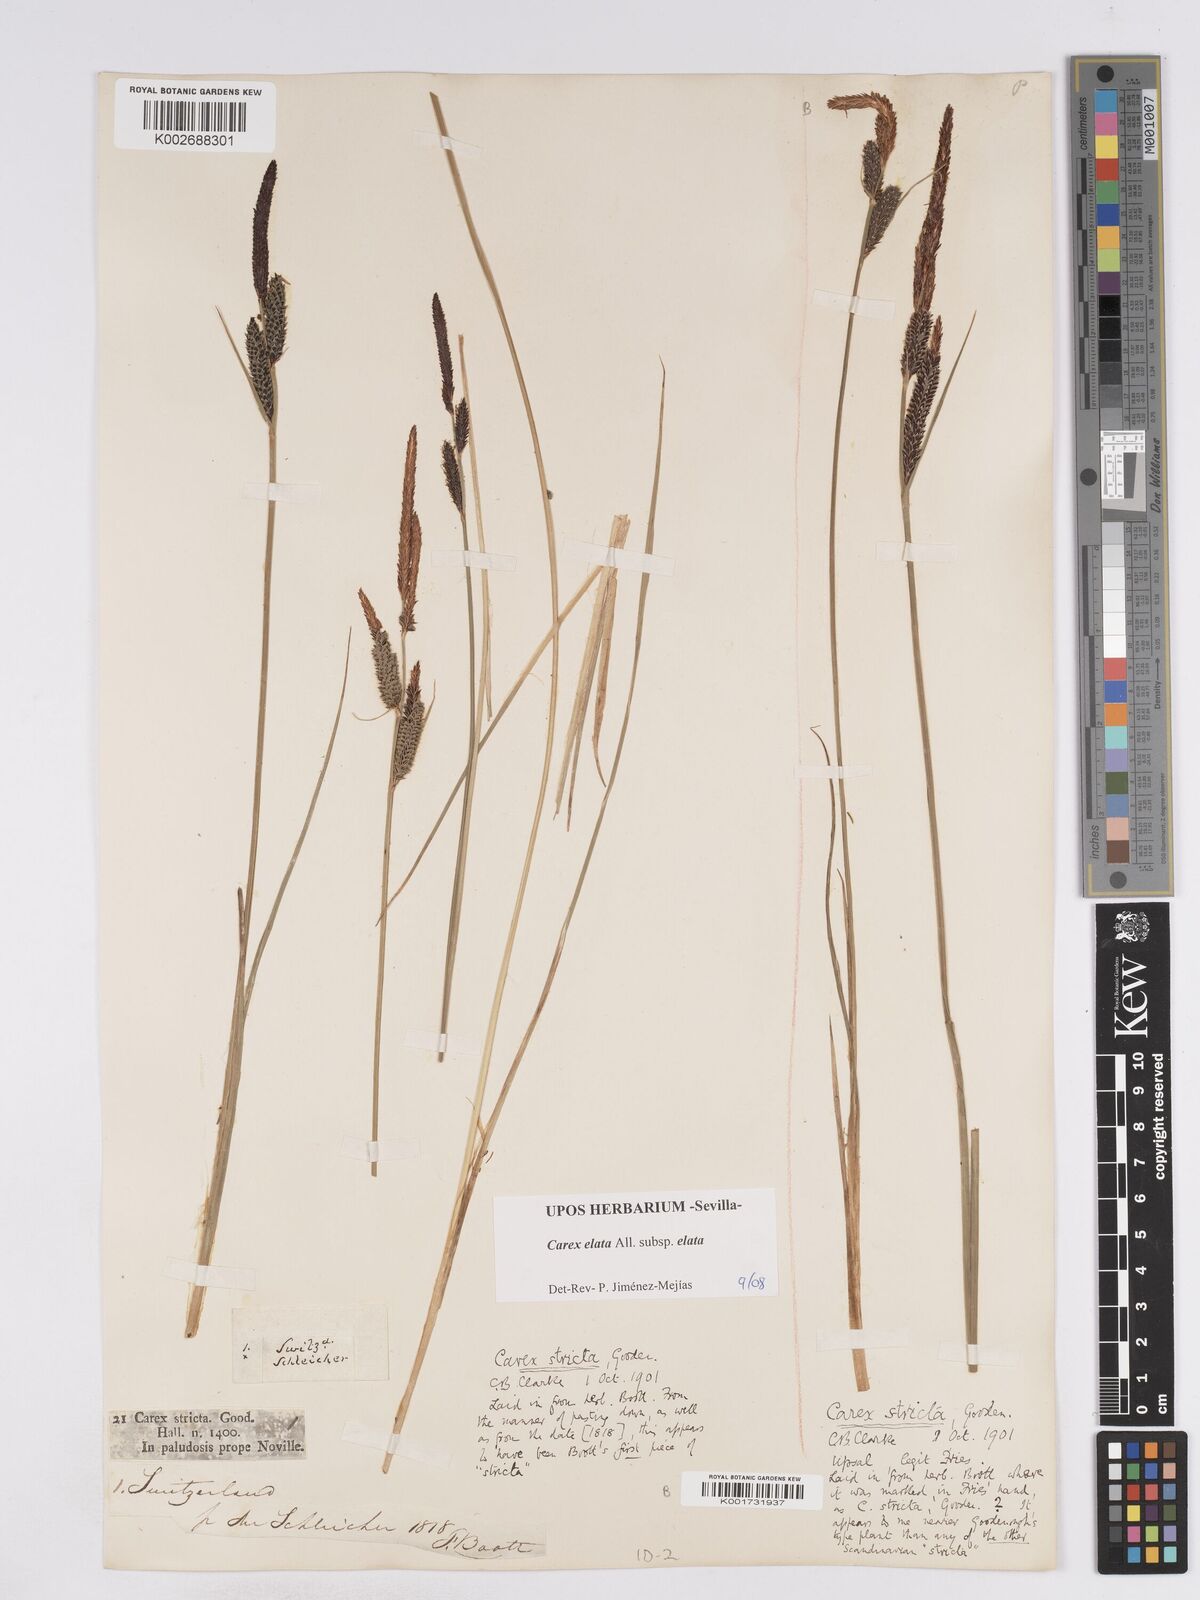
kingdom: Plantae
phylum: Tracheophyta
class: Liliopsida
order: Poales
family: Cyperaceae
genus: Carex
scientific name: Carex elata
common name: Tufted sedge
